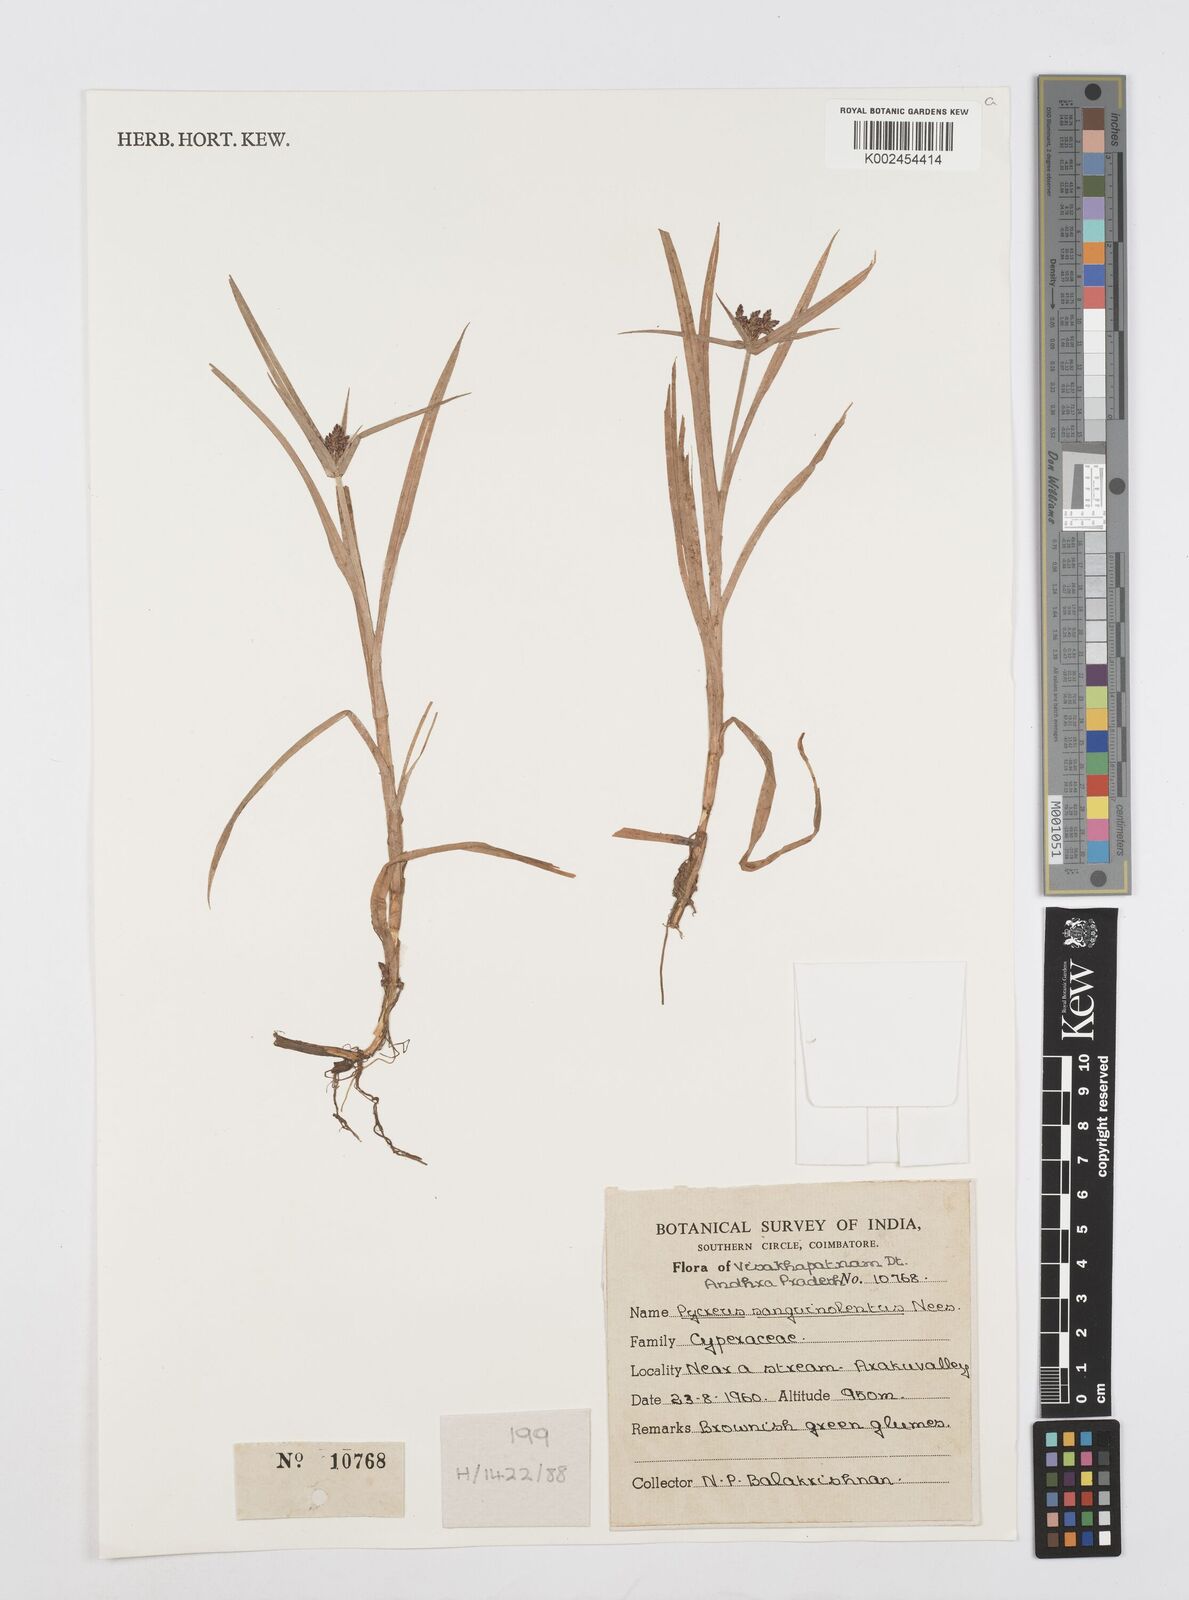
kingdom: Plantae
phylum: Tracheophyta
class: Liliopsida
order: Poales
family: Cyperaceae
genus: Cyperus
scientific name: Cyperus sanguinolentus
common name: Purpleglume flatsedge
